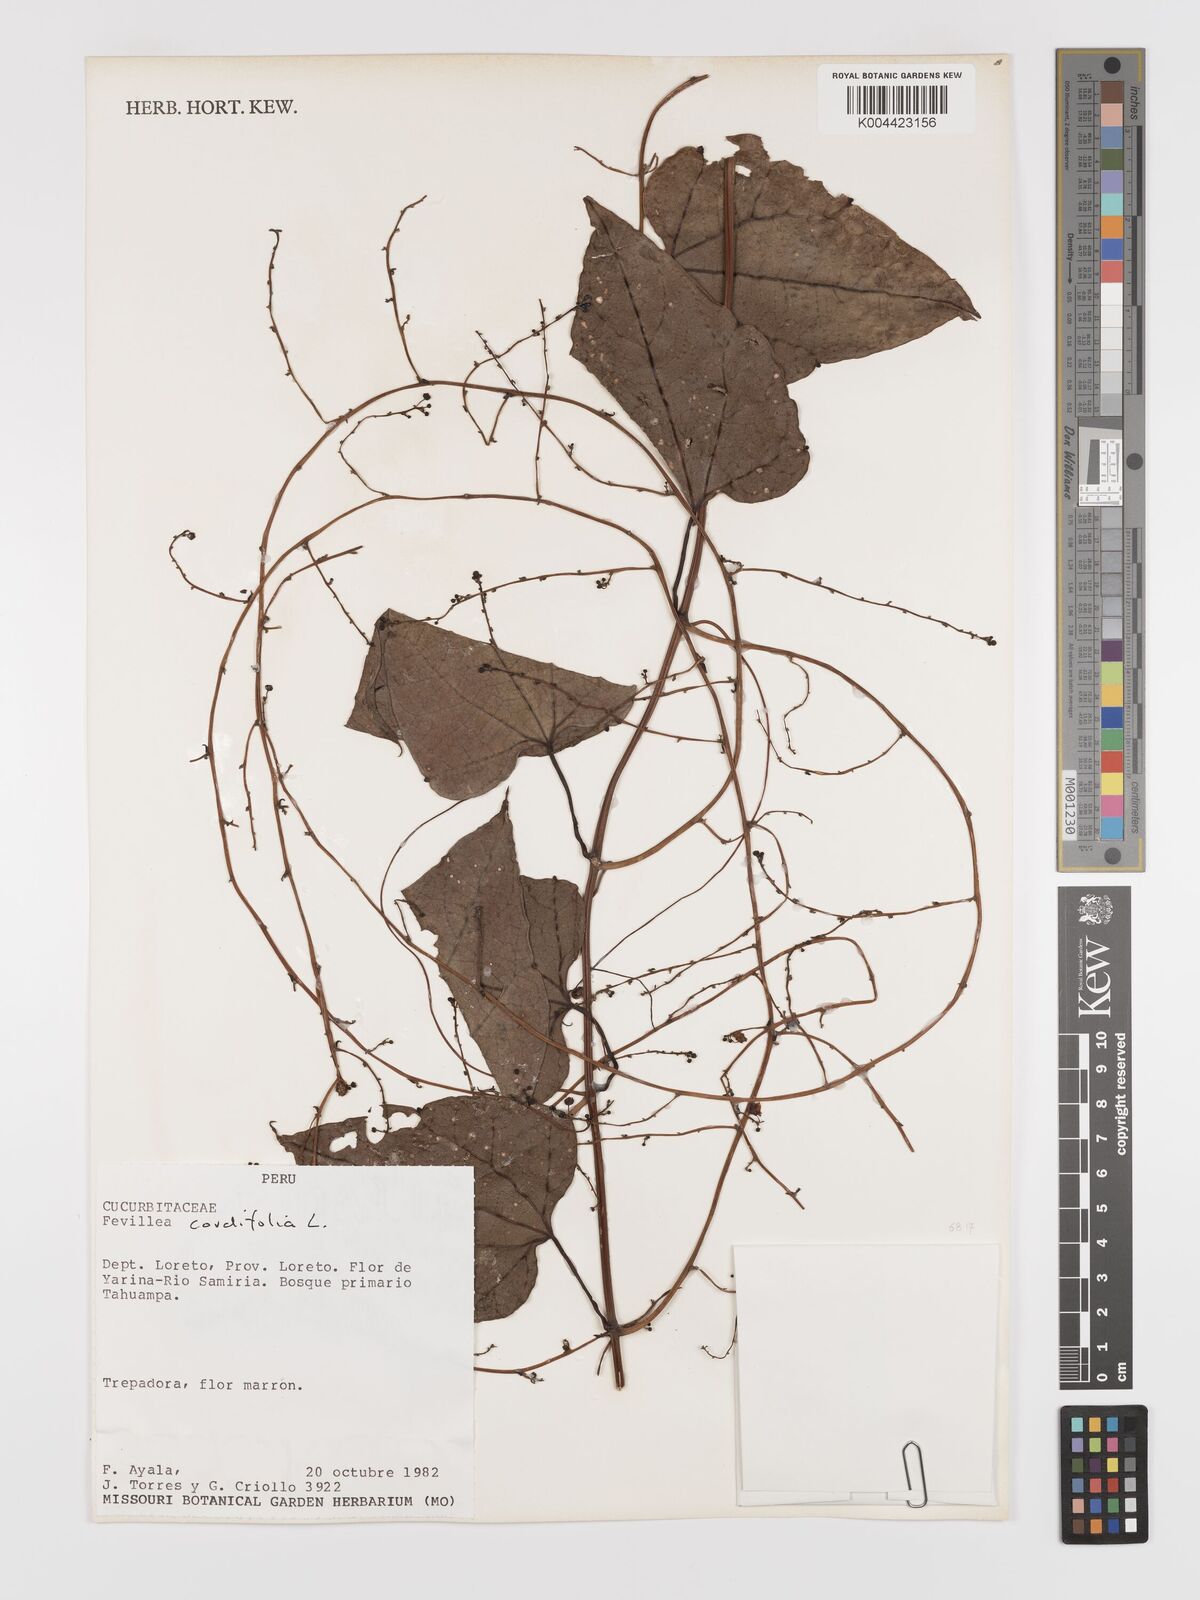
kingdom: Plantae
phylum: Tracheophyta
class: Magnoliopsida
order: Cucurbitales
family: Cucurbitaceae
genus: Fevillea
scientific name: Fevillea
